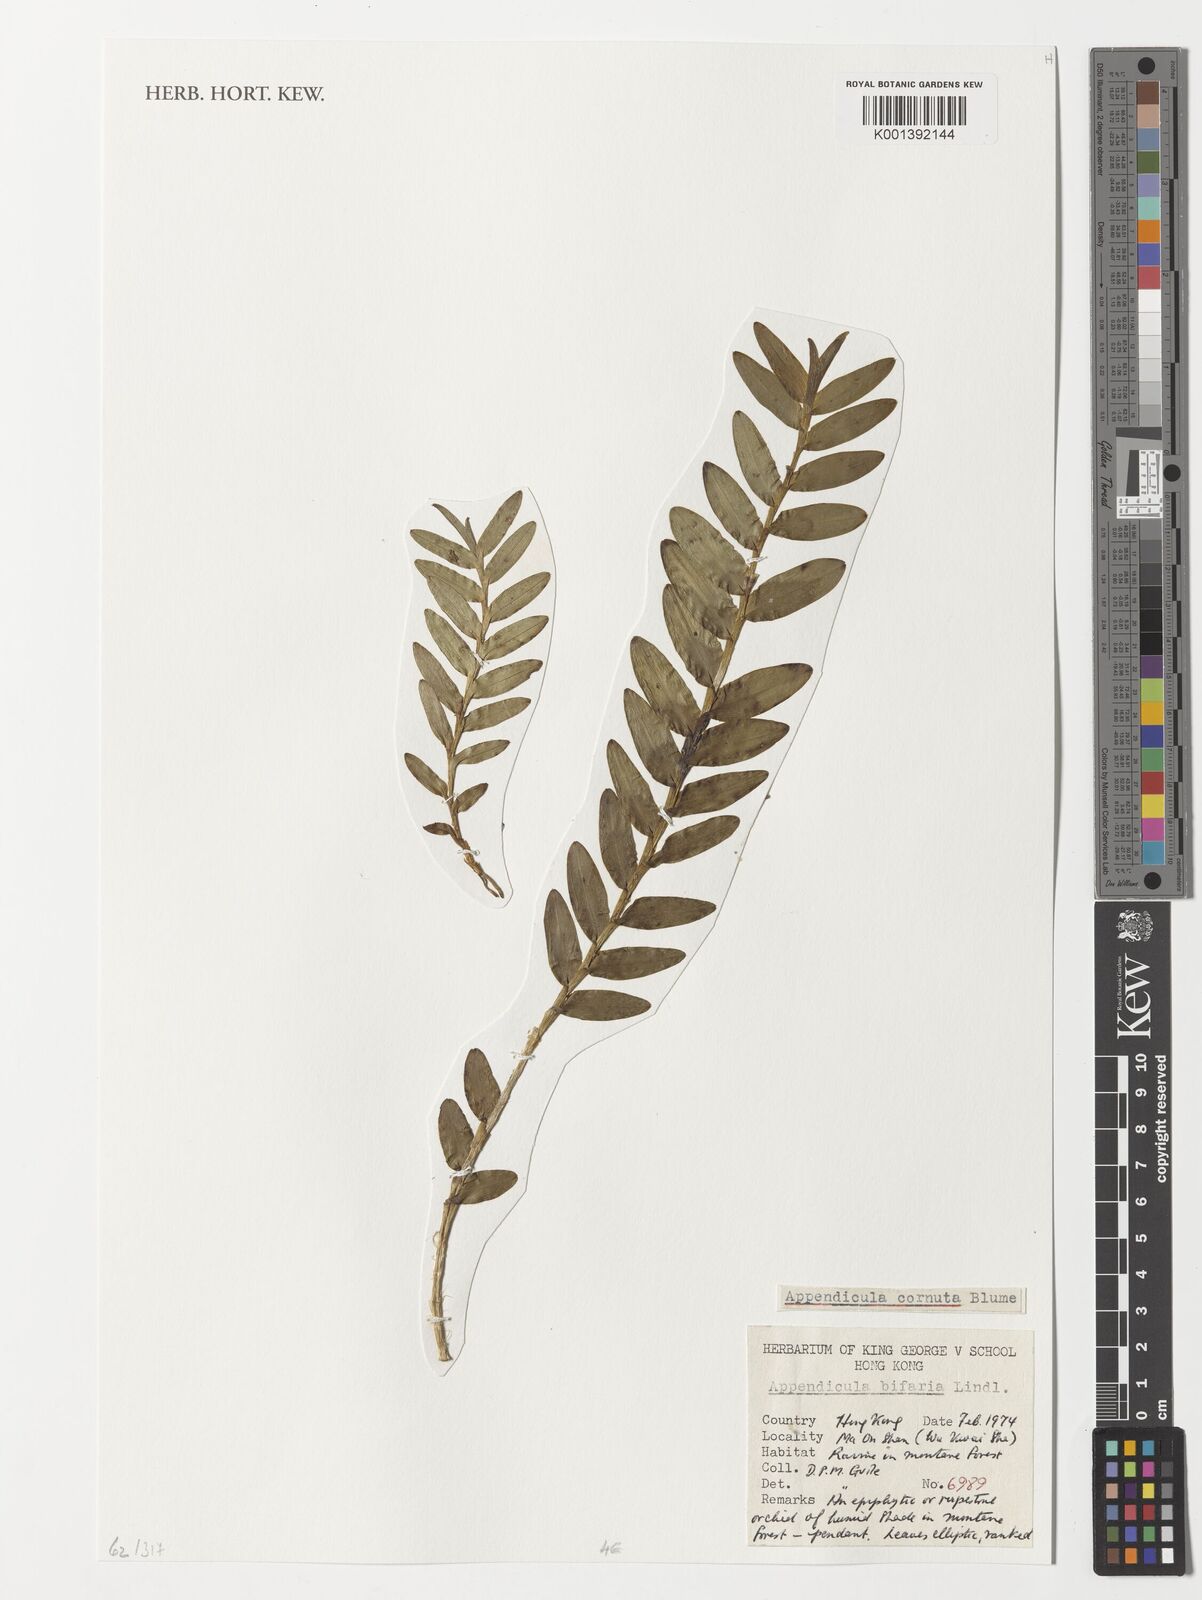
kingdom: Plantae
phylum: Tracheophyta
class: Liliopsida
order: Asparagales
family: Orchidaceae
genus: Appendicula
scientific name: Appendicula cornuta
